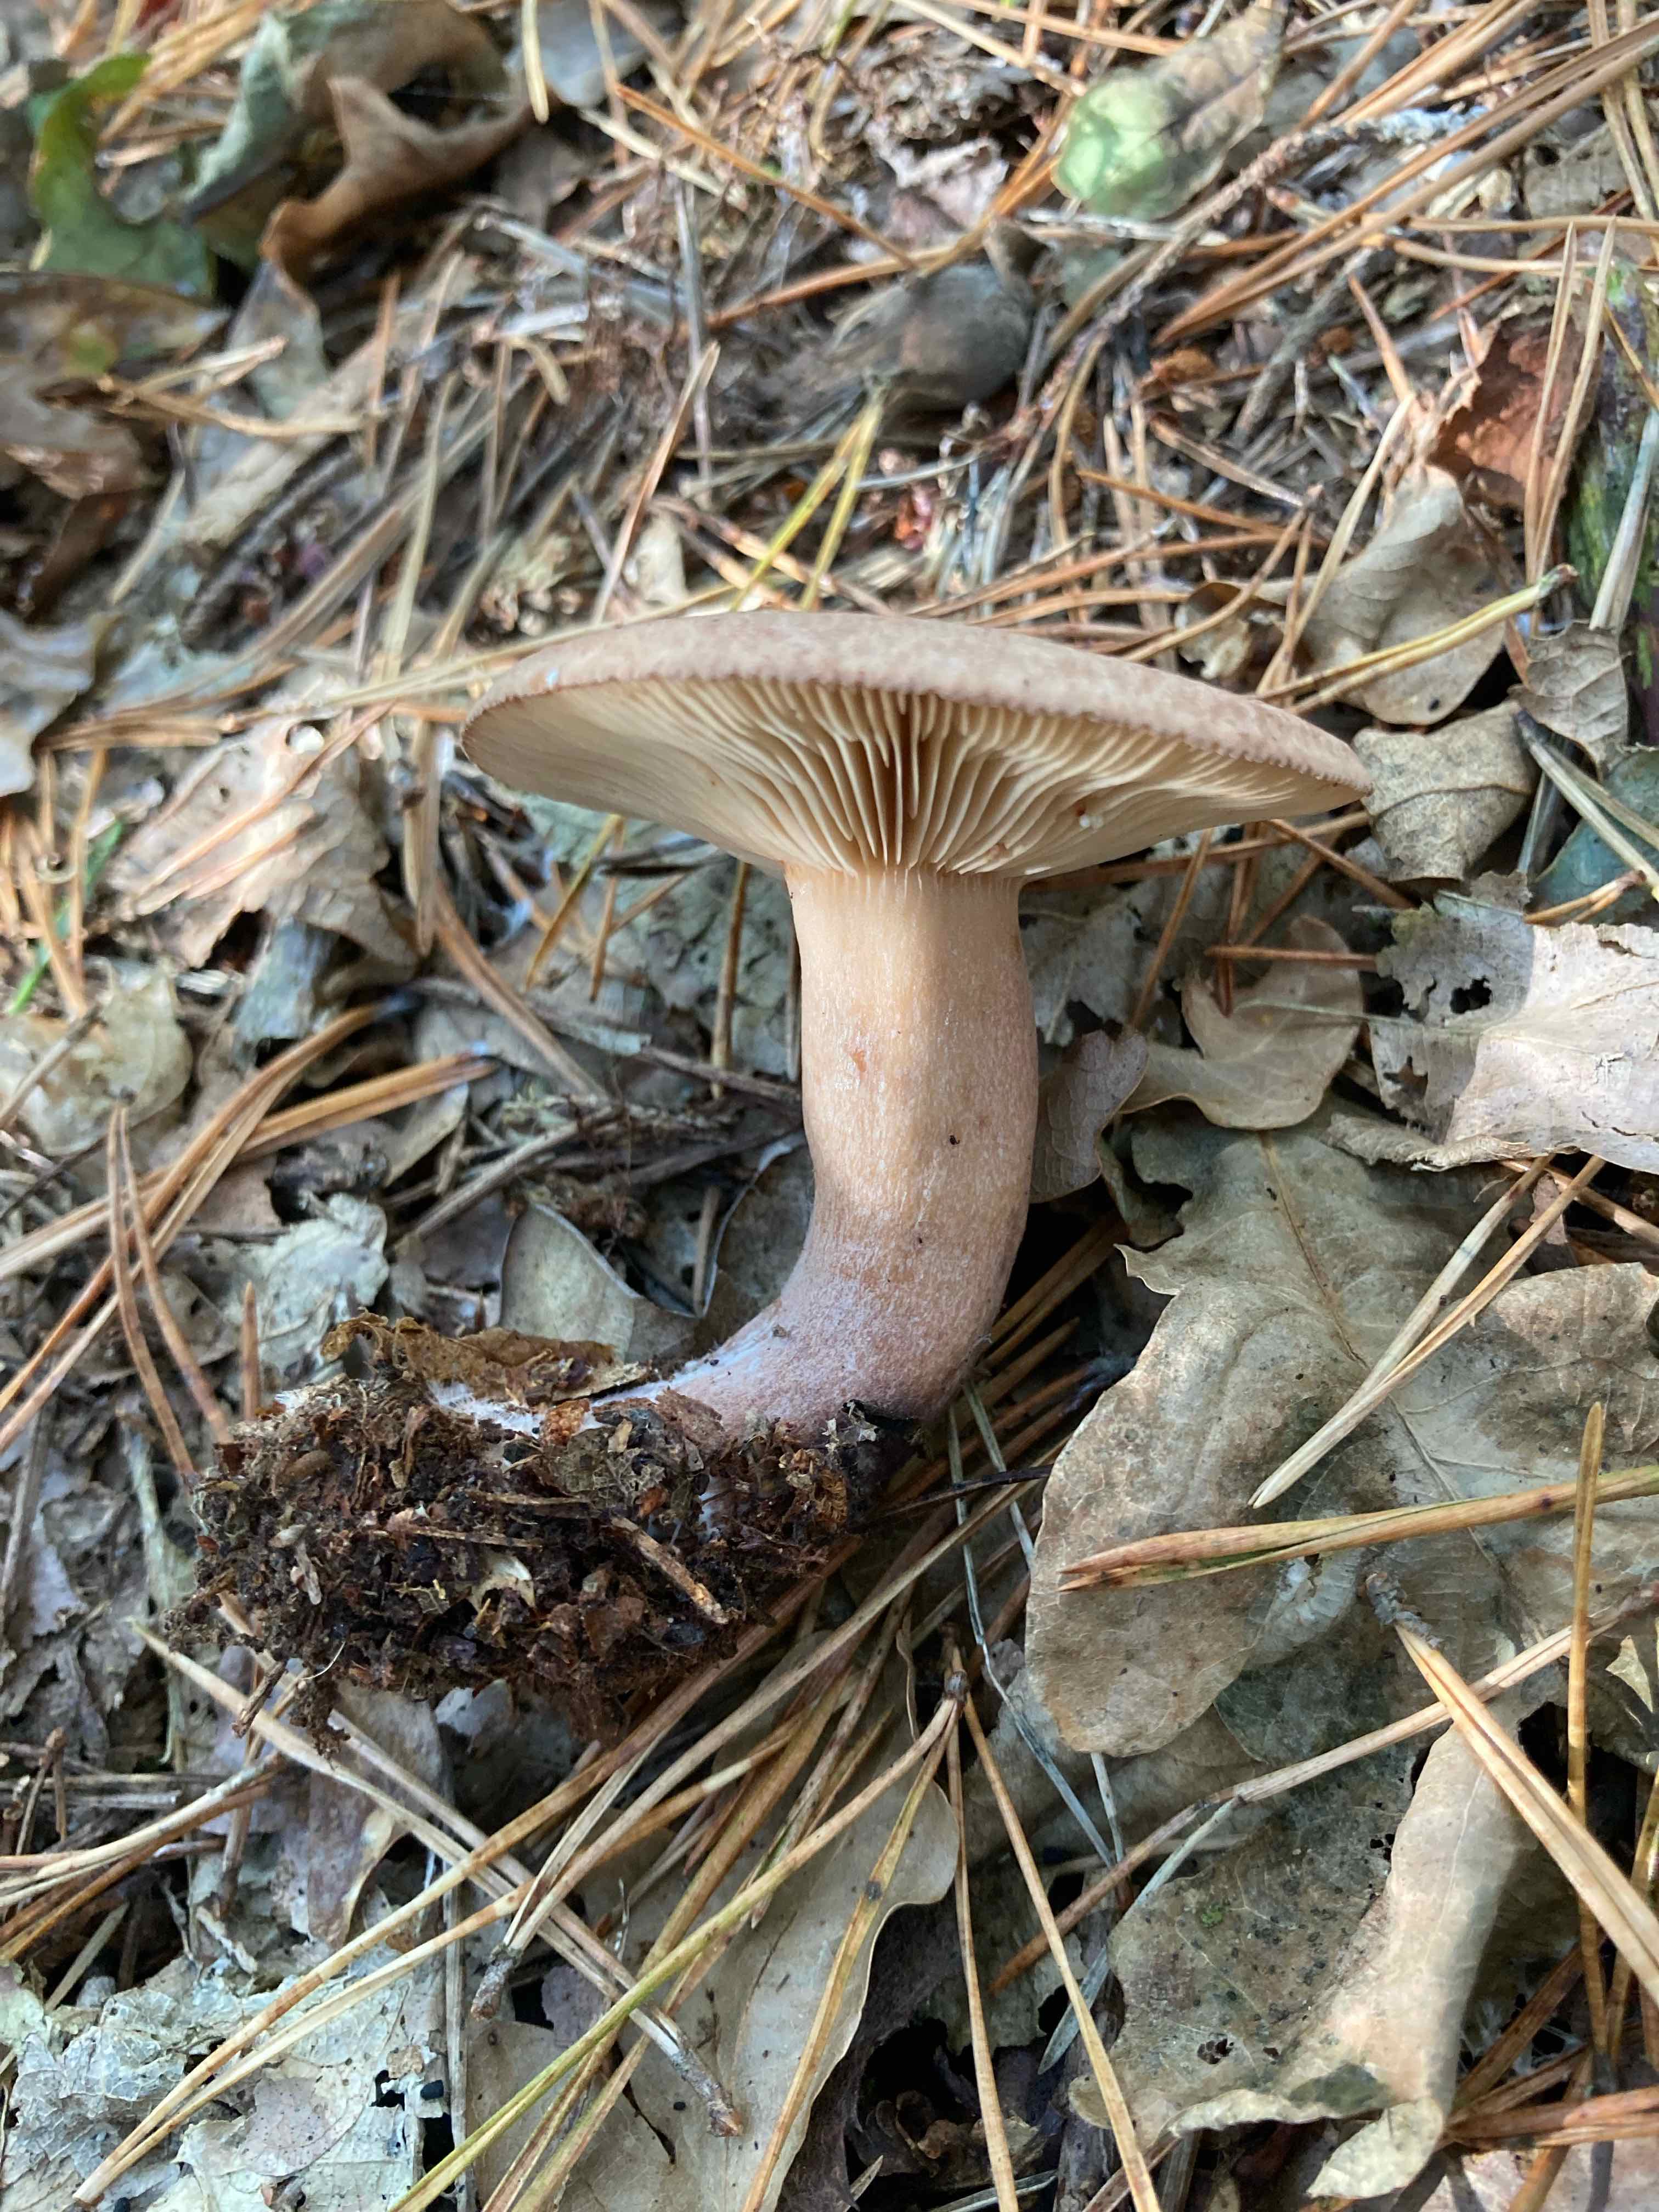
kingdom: Fungi
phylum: Basidiomycota
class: Agaricomycetes
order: Russulales
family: Russulaceae
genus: Lactarius
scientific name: Lactarius quietus
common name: ege-mælkehat
